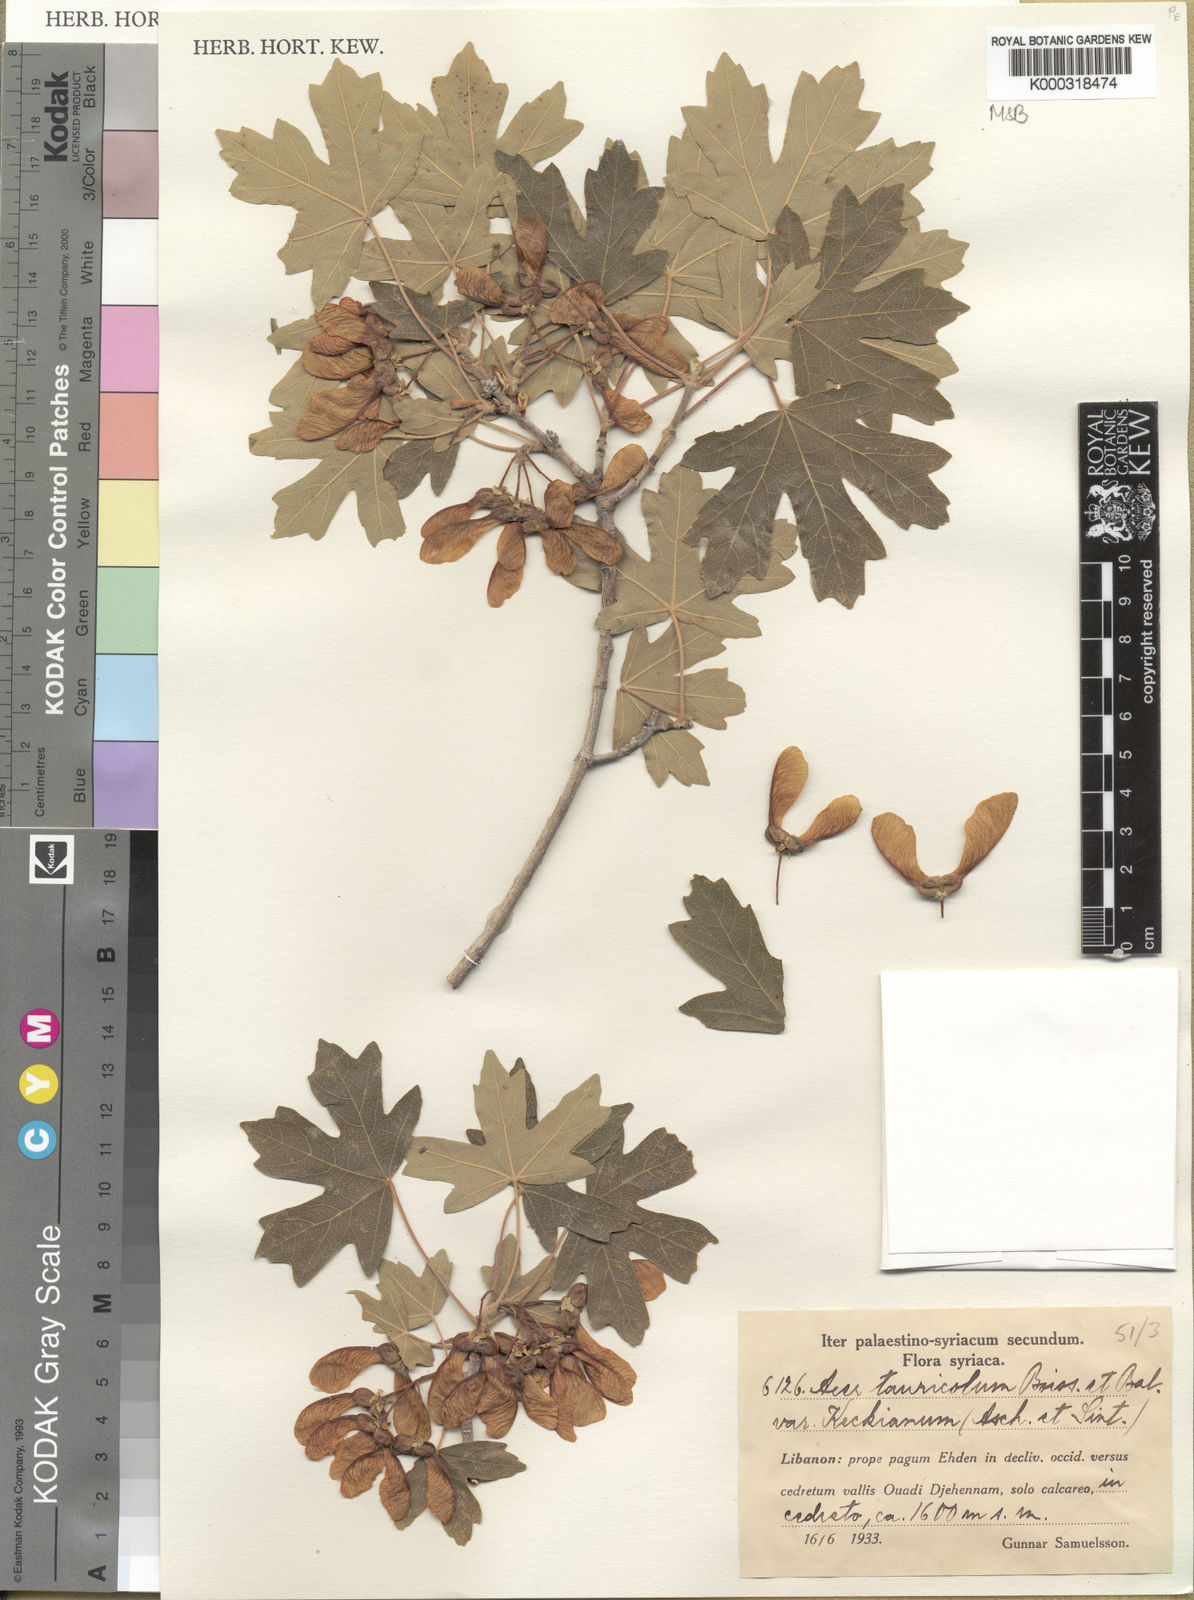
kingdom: Plantae
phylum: Tracheophyta
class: Magnoliopsida
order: Sapindales
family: Sapindaceae
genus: Acer
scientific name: Acer hyrcanum
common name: Balkan maple
